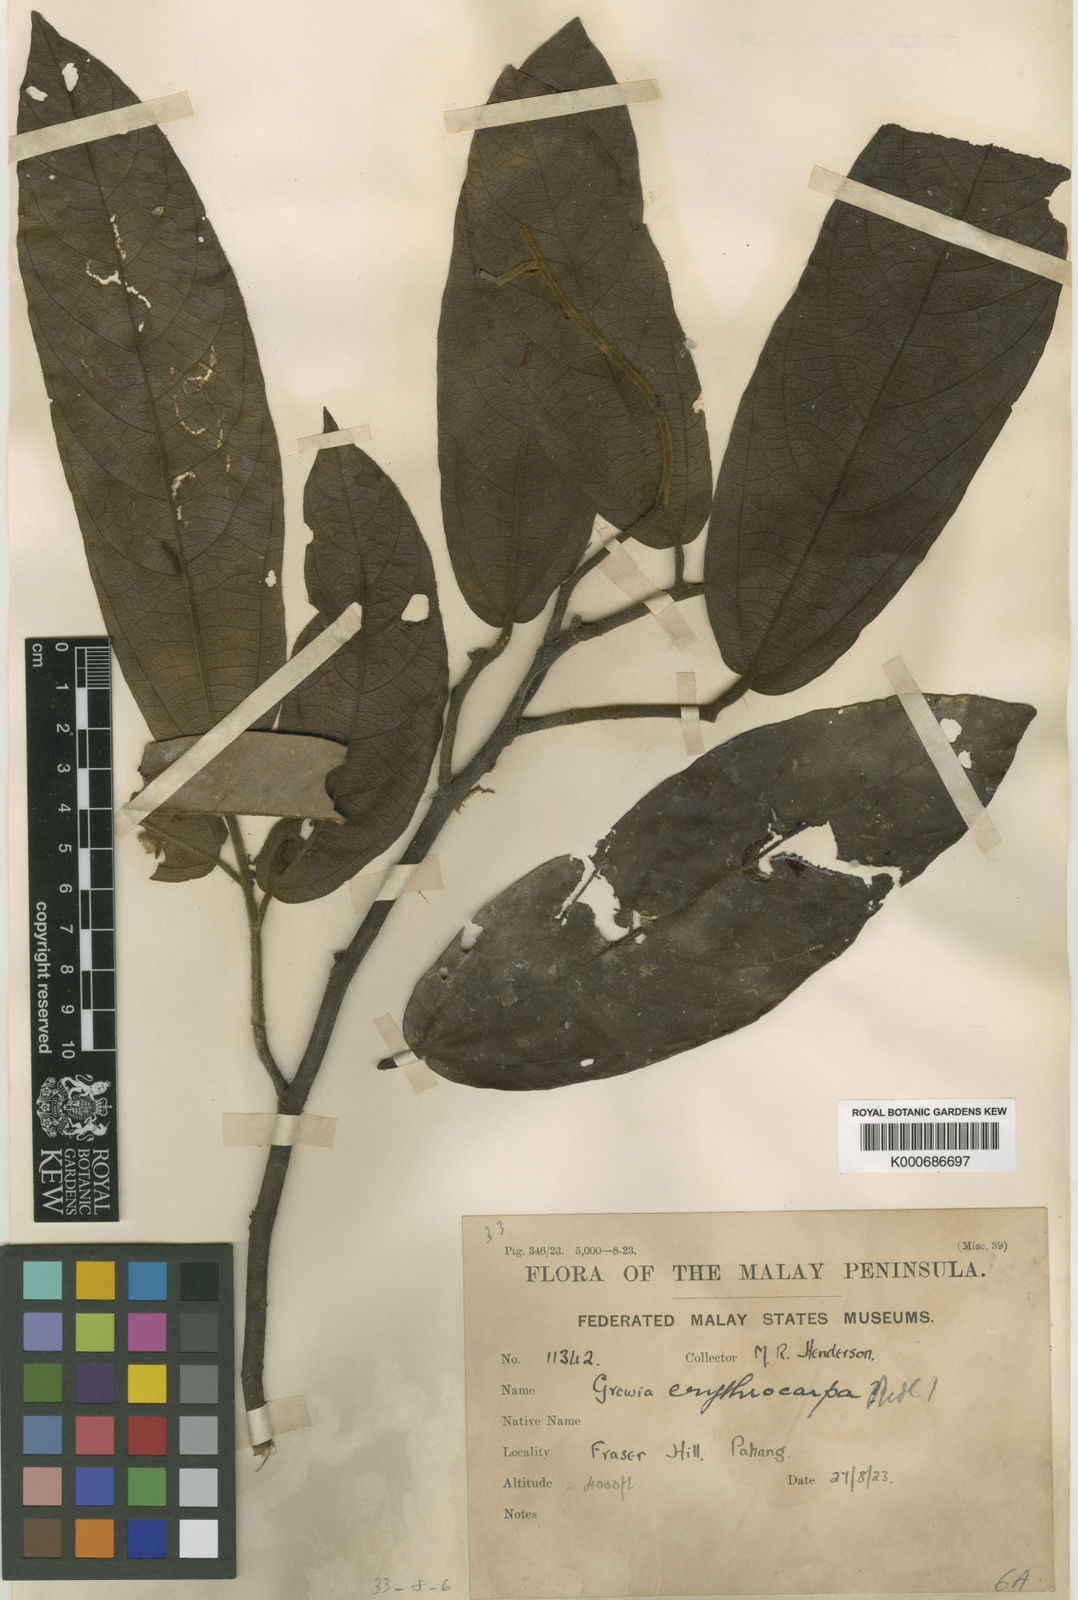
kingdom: Plantae
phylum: Tracheophyta
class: Magnoliopsida
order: Malvales
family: Malvaceae
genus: Microcos
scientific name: Microcos erythrocarpa
